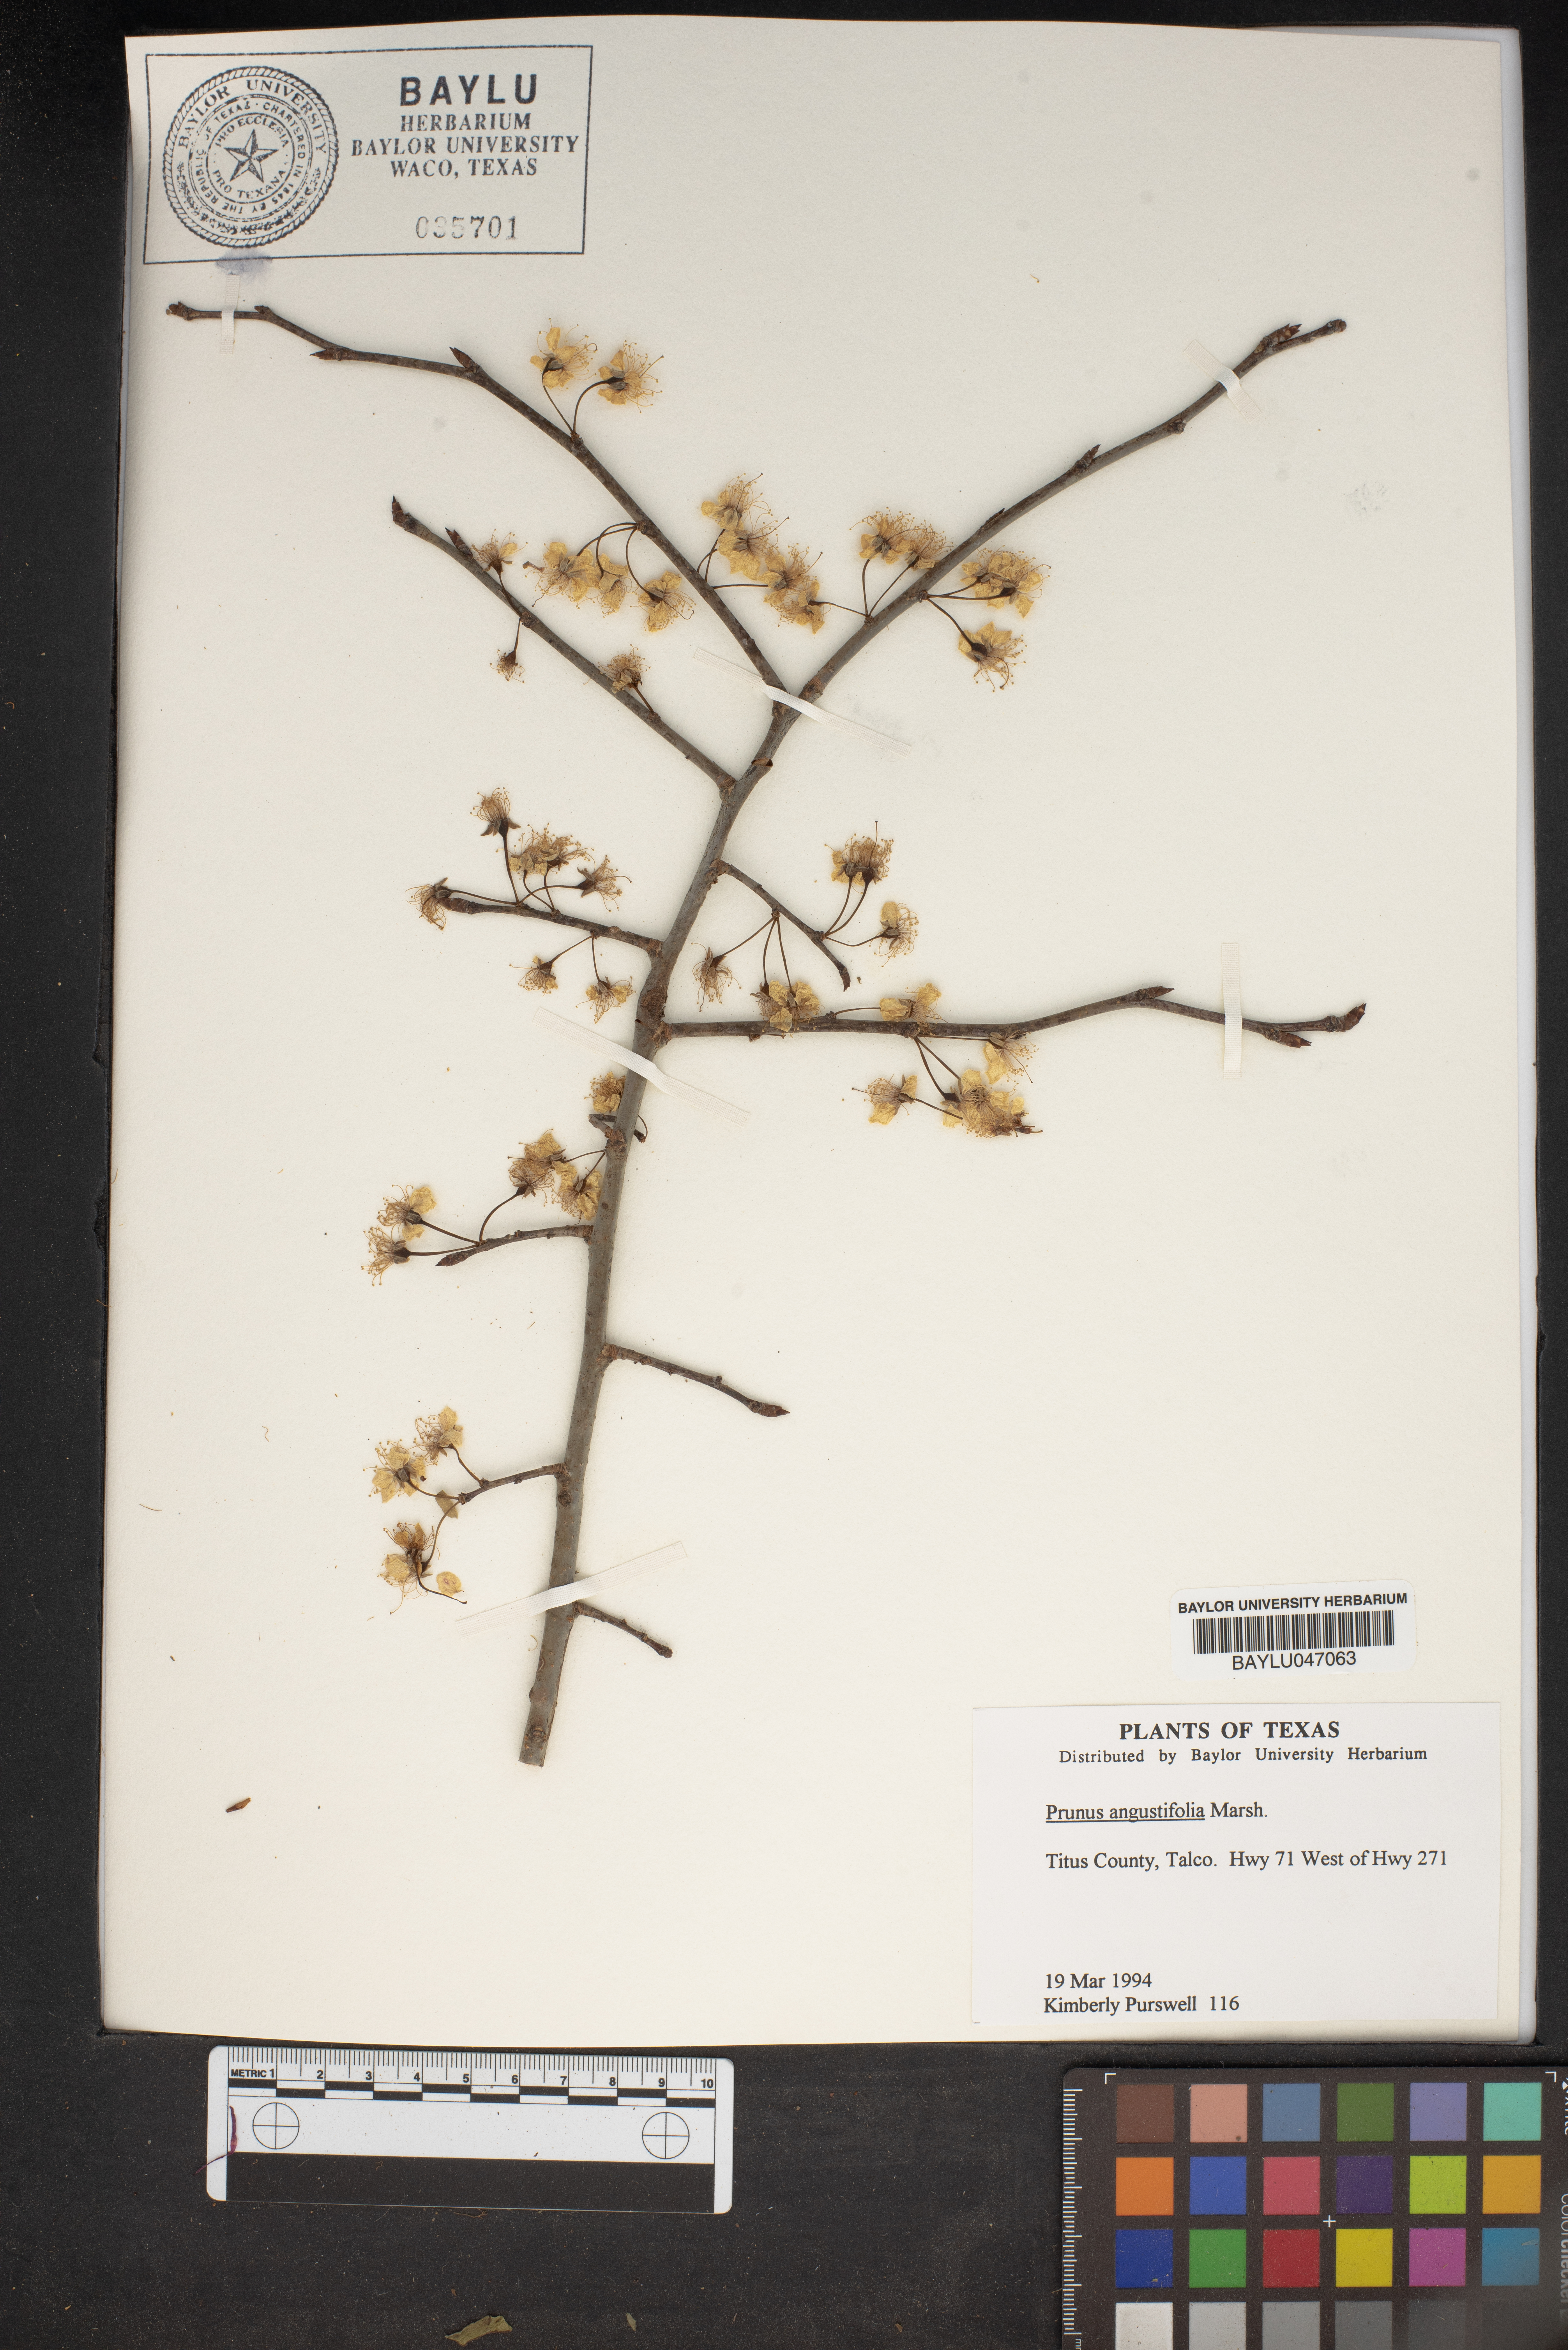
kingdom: Plantae
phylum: Tracheophyta
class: Magnoliopsida
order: Rosales
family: Rosaceae
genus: Prunus
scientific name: Prunus angustifolia
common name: Cherokee plum
